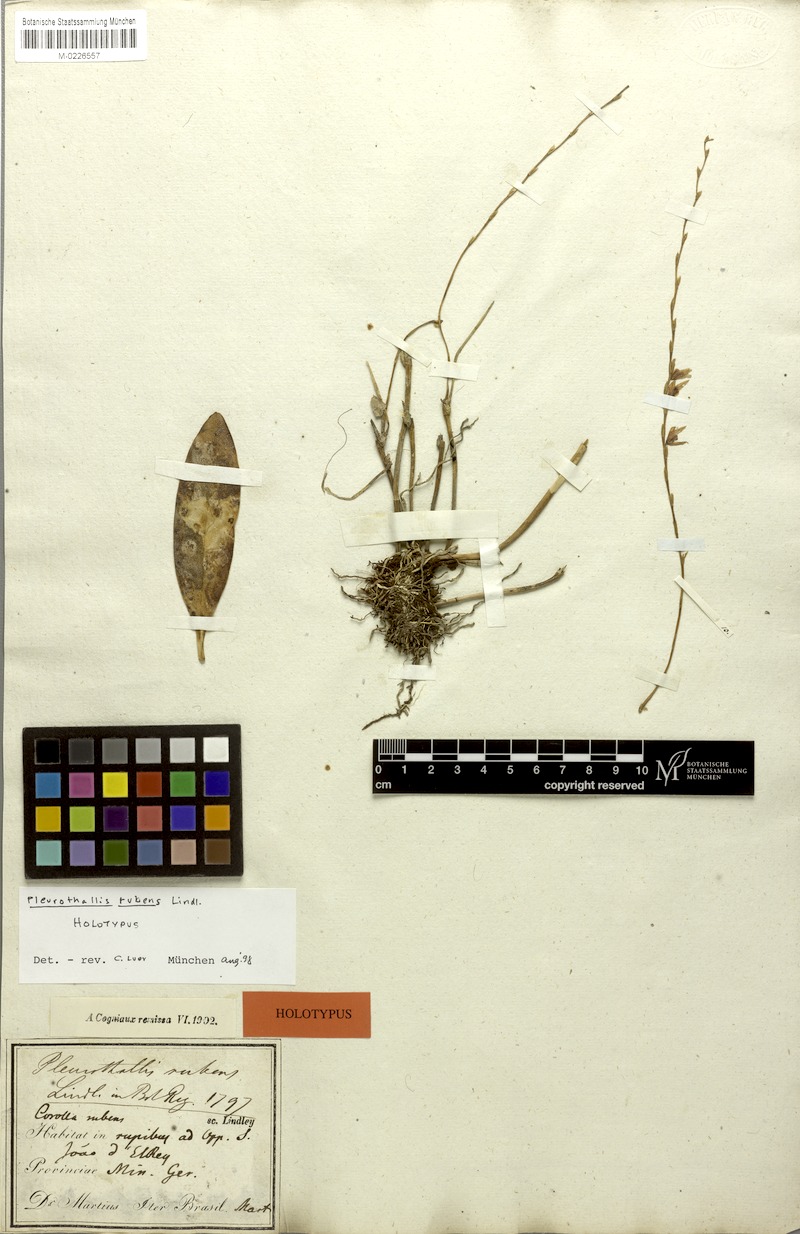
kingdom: Plantae
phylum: Tracheophyta
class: Liliopsida
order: Asparagales
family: Orchidaceae
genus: Stelis
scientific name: Stelis montserratii
